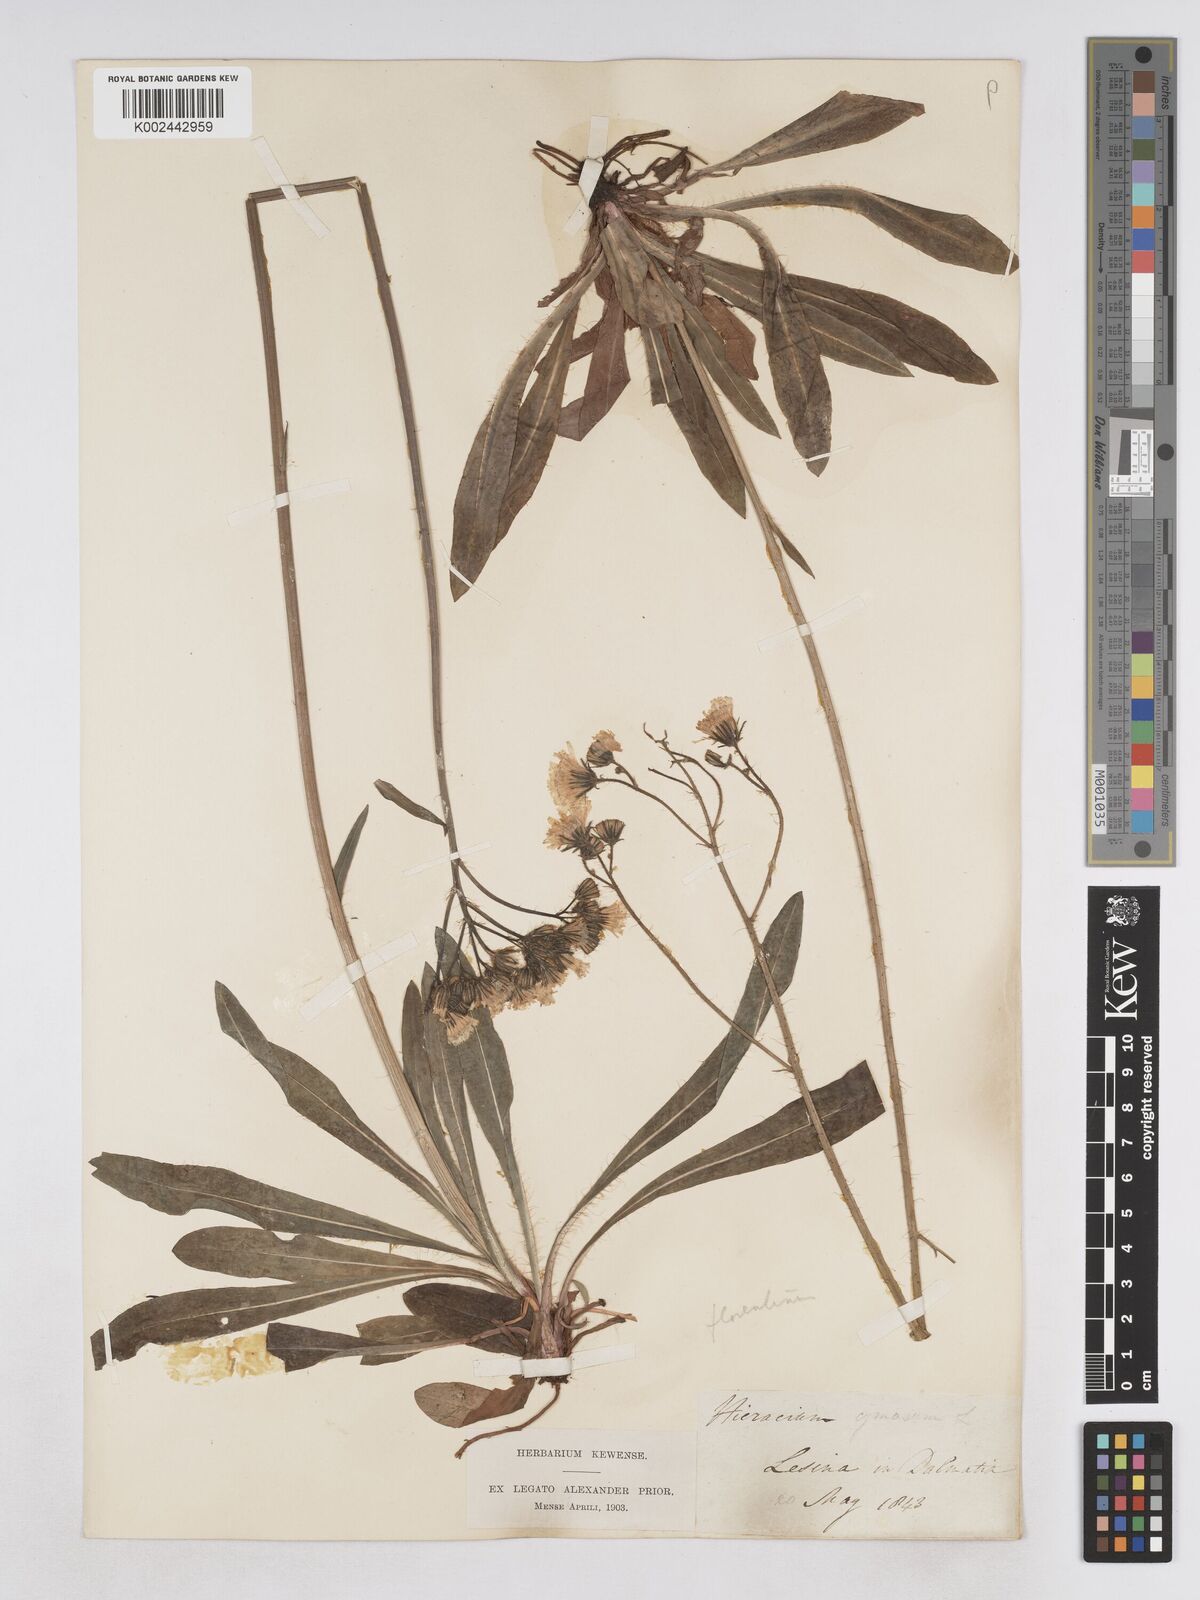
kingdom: Plantae
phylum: Tracheophyta
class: Magnoliopsida
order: Asterales
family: Asteraceae
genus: Pilosella
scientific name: Pilosella piloselloides
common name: Glaucous king-devil
